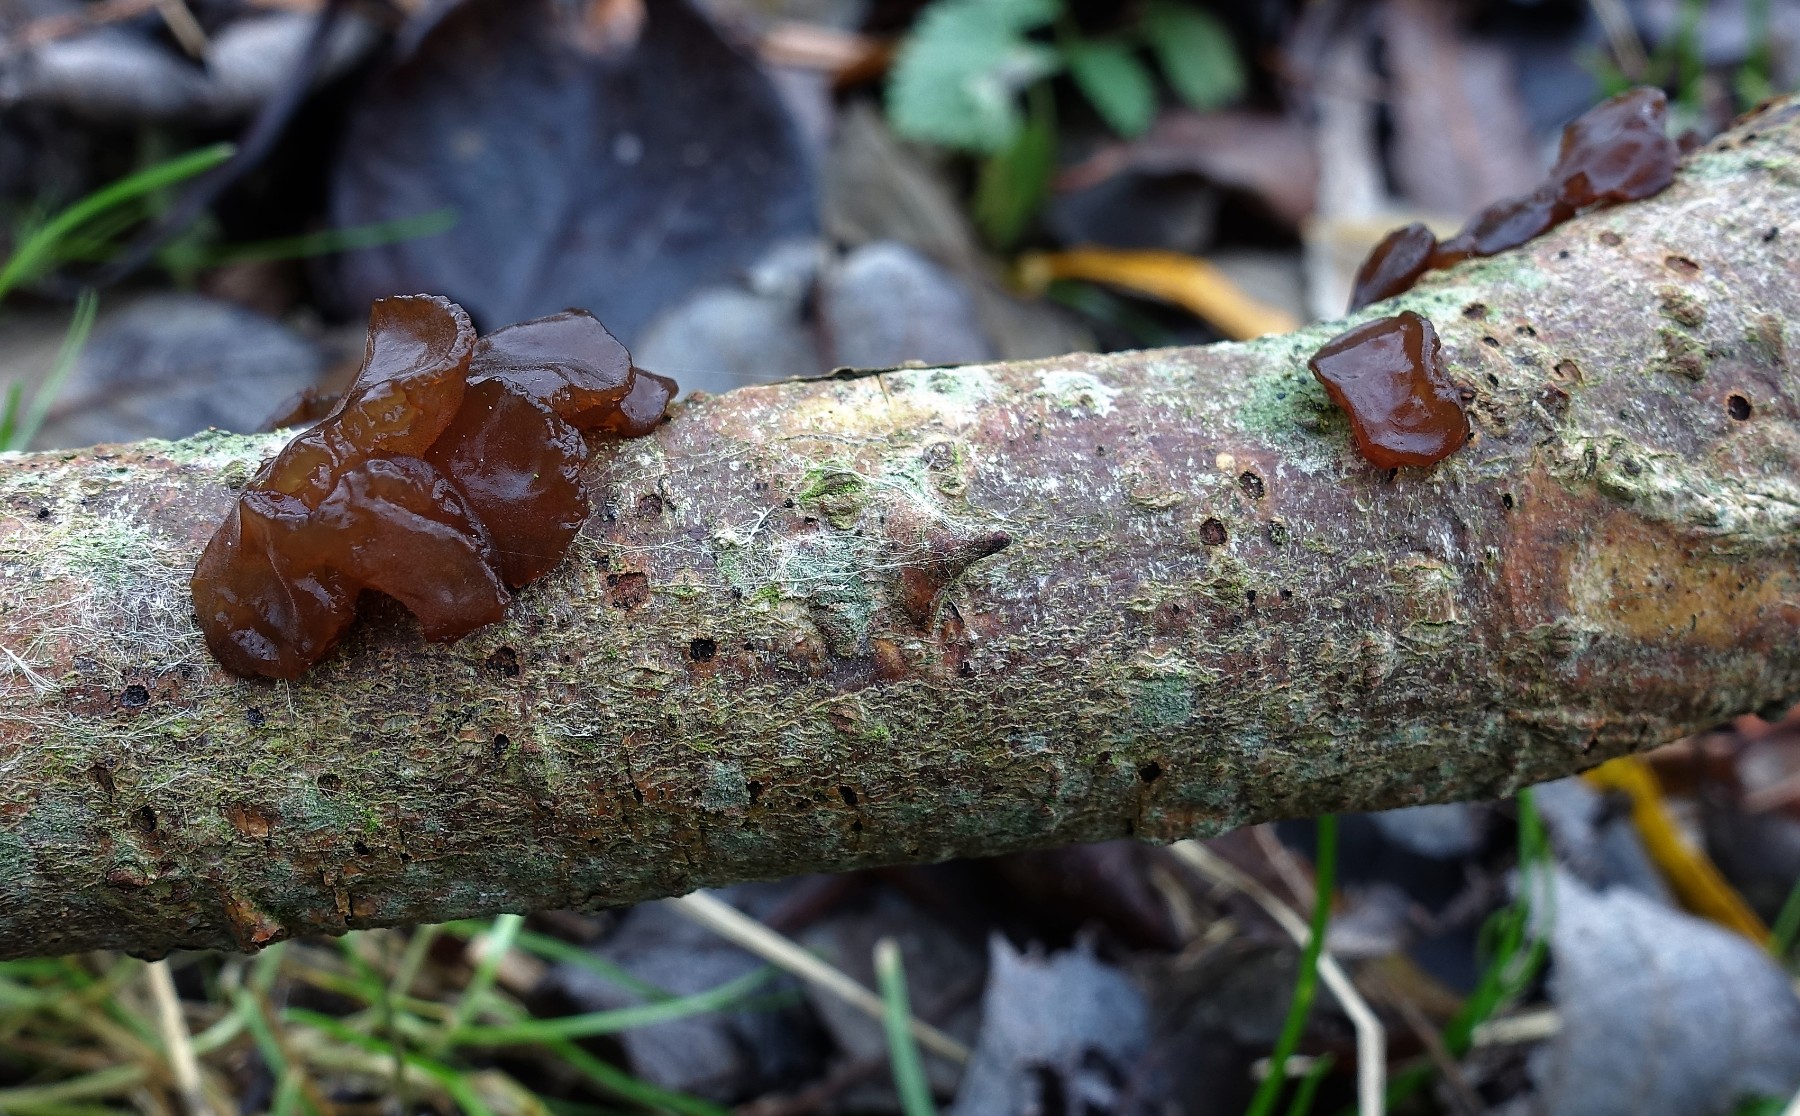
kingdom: Fungi
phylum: Basidiomycota
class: Agaricomycetes
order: Auriculariales
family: Auriculariaceae
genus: Exidia
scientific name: Exidia recisa
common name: pile-bævretop
